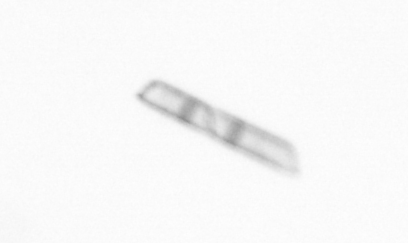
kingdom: Chromista
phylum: Ochrophyta
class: Bacillariophyceae
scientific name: Bacillariophyceae
